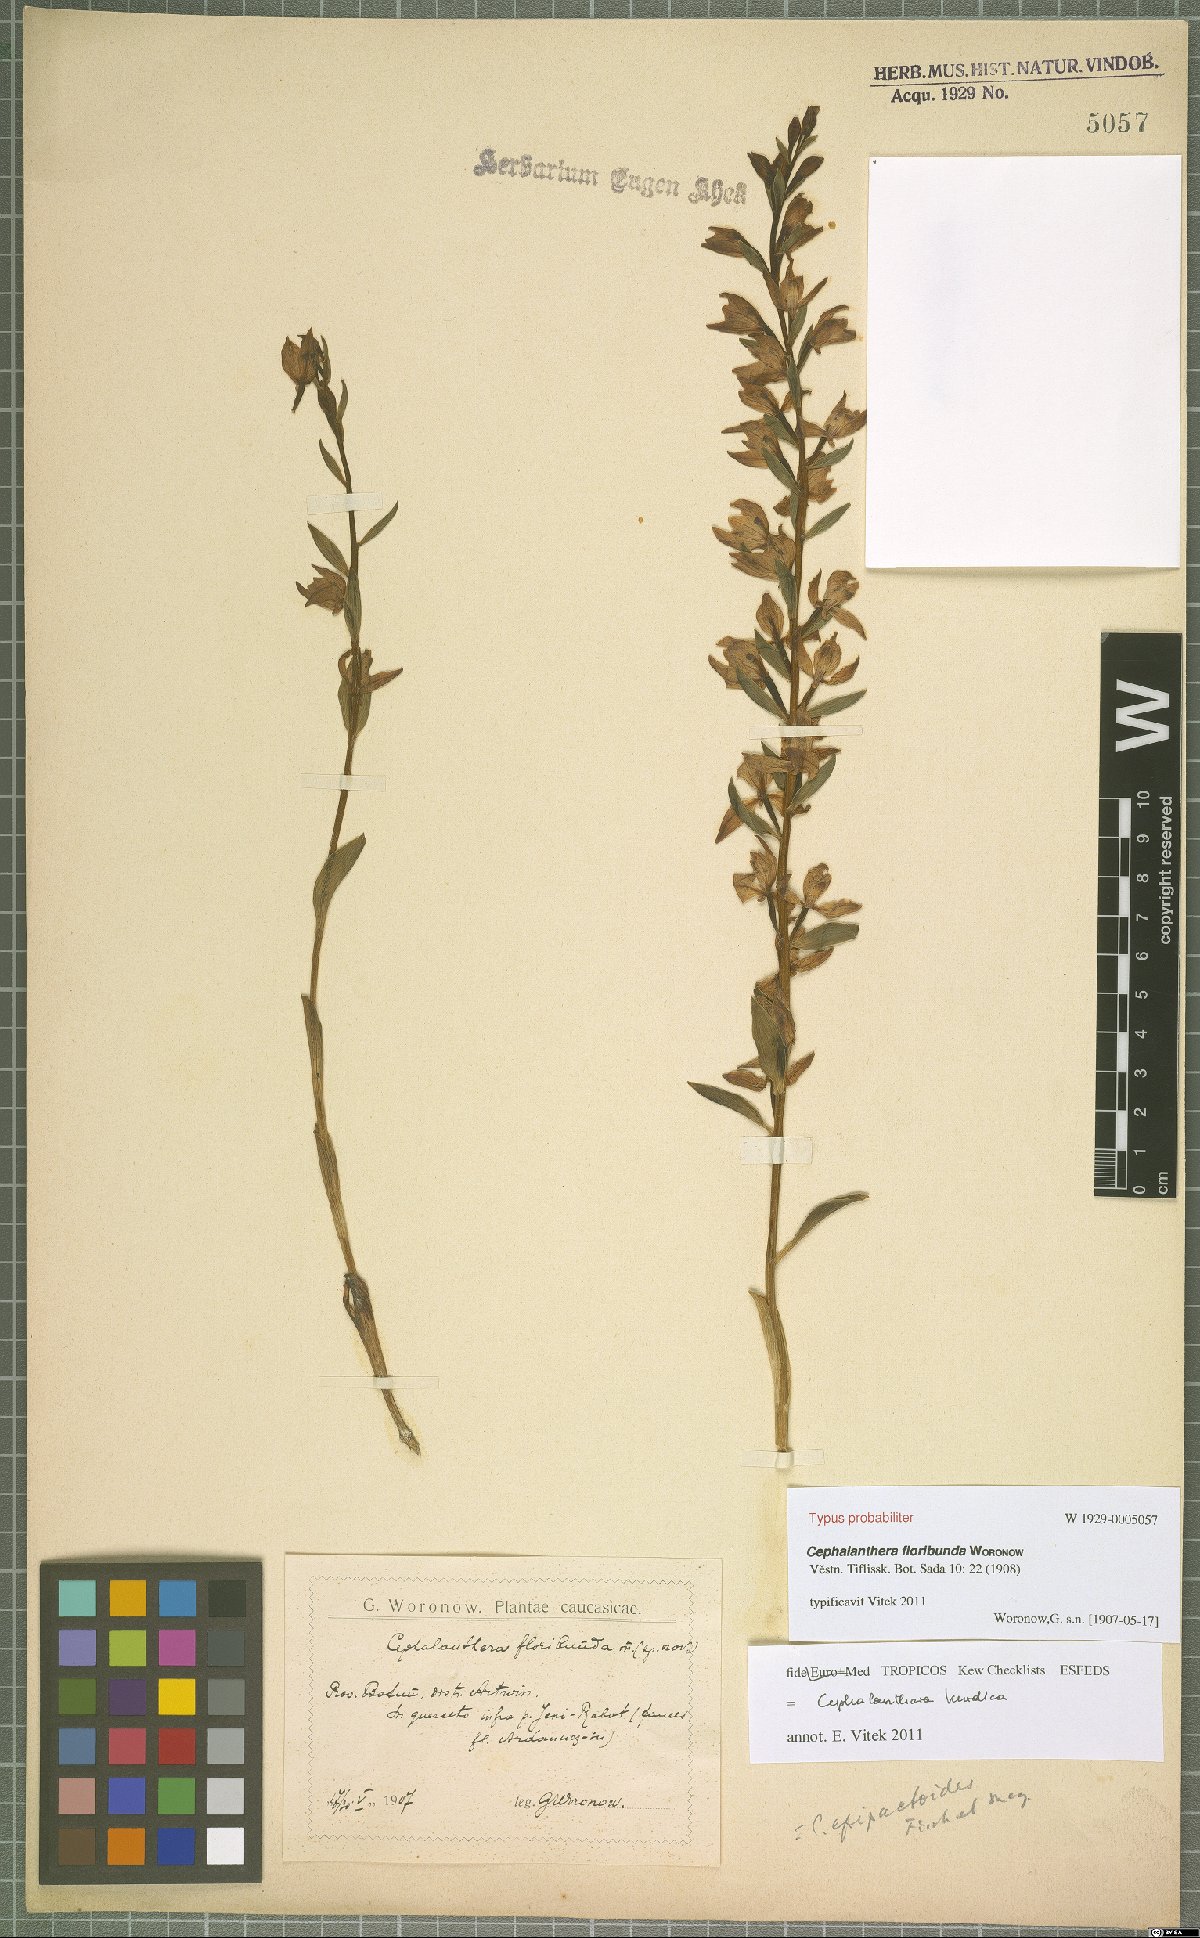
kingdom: Plantae
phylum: Tracheophyta
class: Liliopsida
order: Asparagales
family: Orchidaceae
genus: Cephalanthera
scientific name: Cephalanthera kurdica
